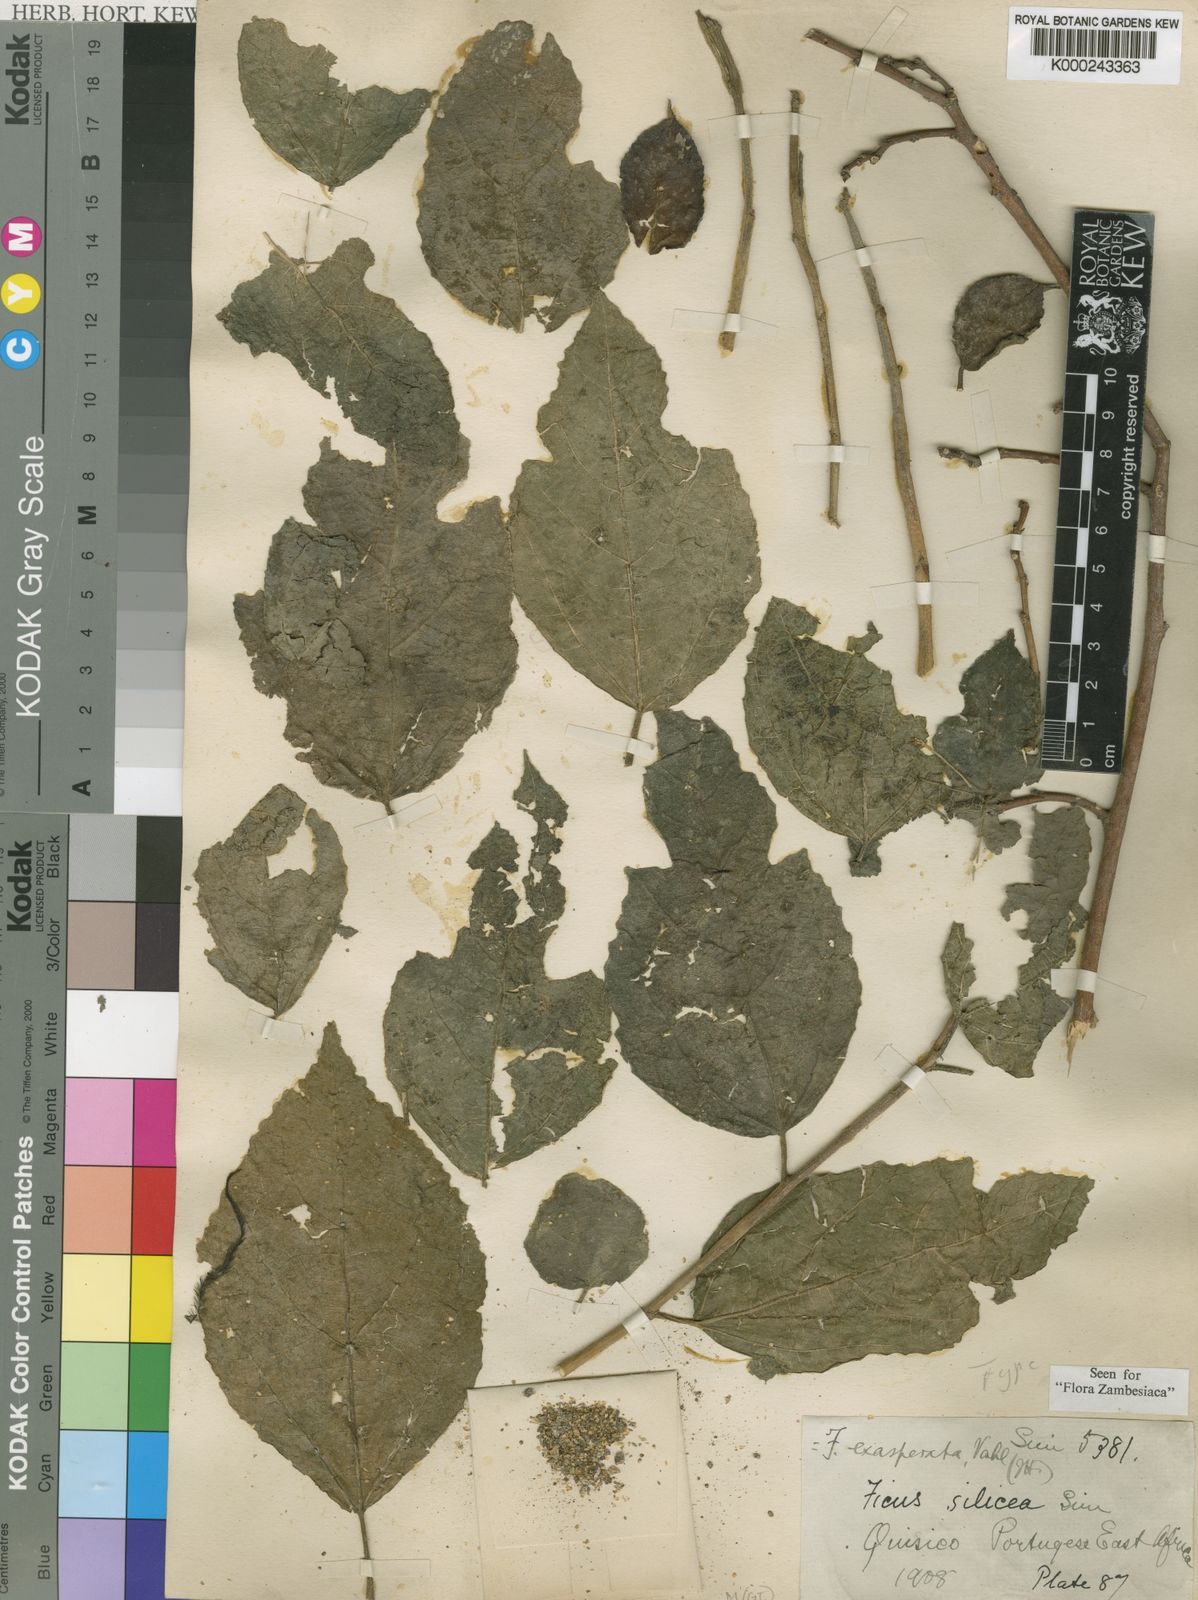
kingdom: Plantae
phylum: Tracheophyta
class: Magnoliopsida
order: Rosales
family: Moraceae
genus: Ficus
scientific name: Ficus exasperata
